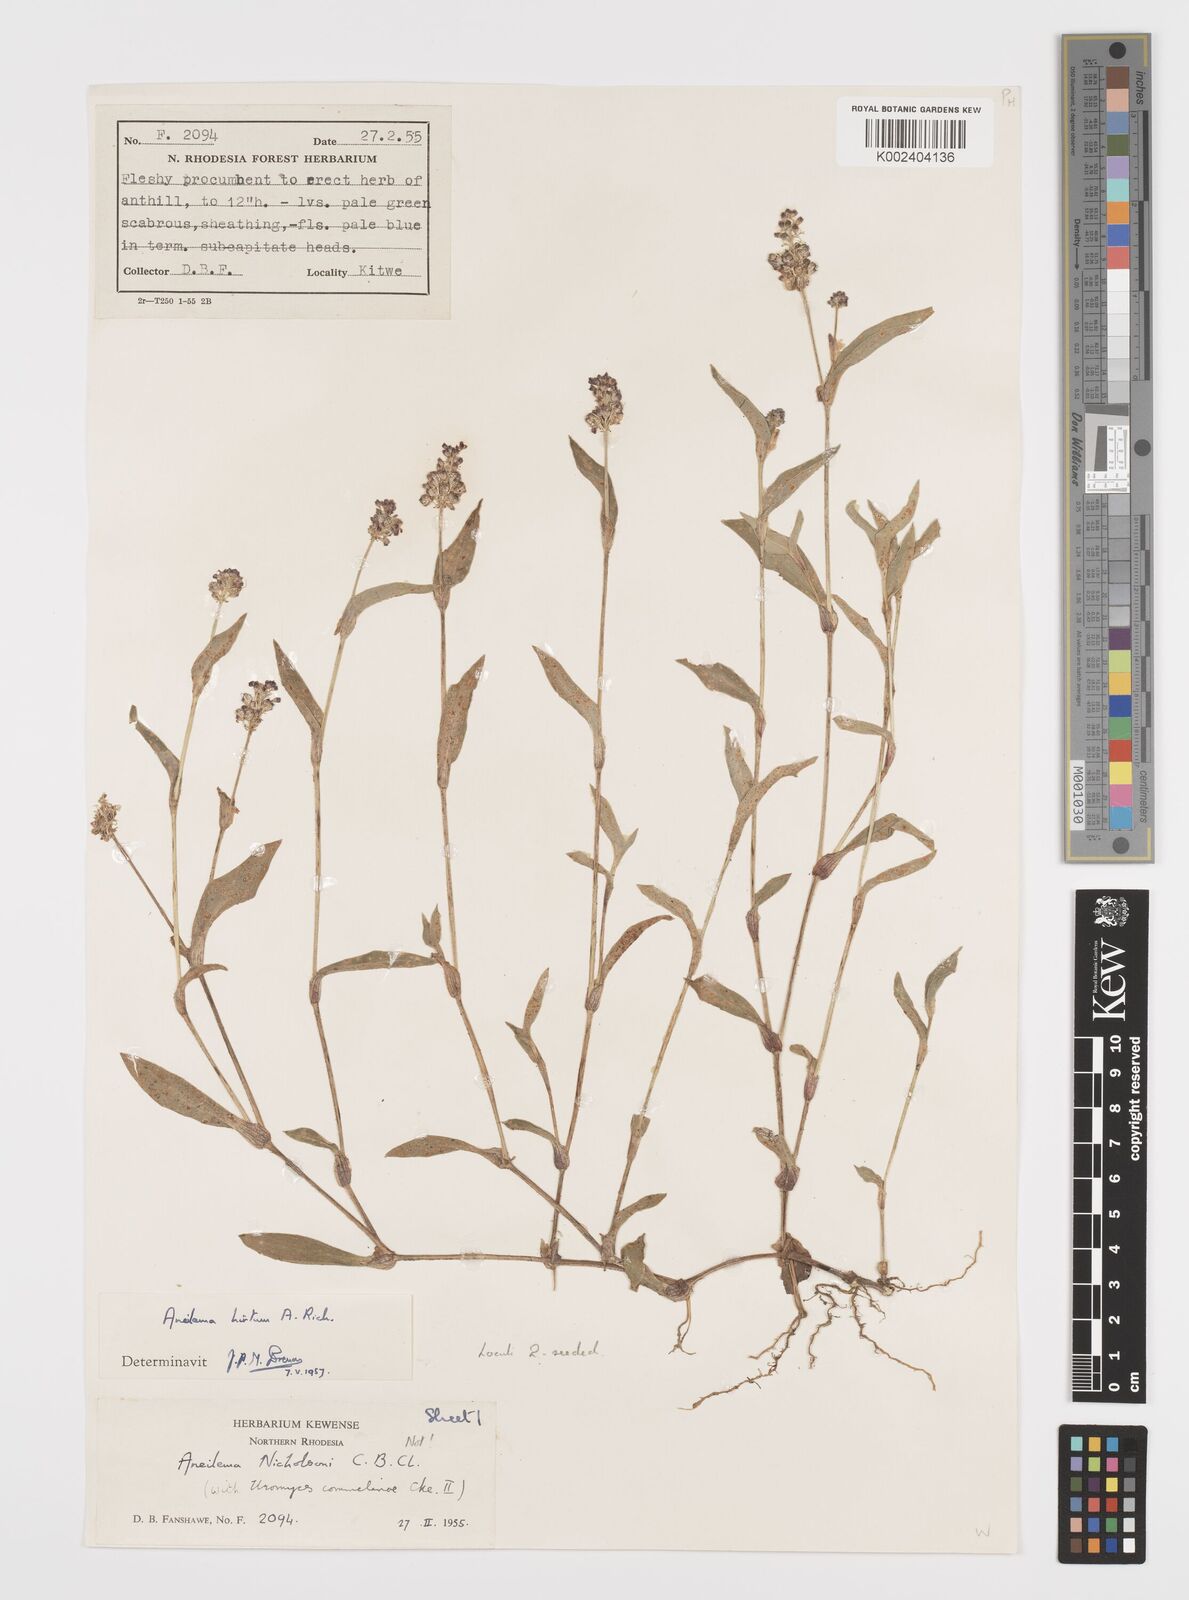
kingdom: Plantae
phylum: Tracheophyta
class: Liliopsida
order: Commelinales
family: Commelinaceae
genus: Aneilema
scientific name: Aneilema hirtum
